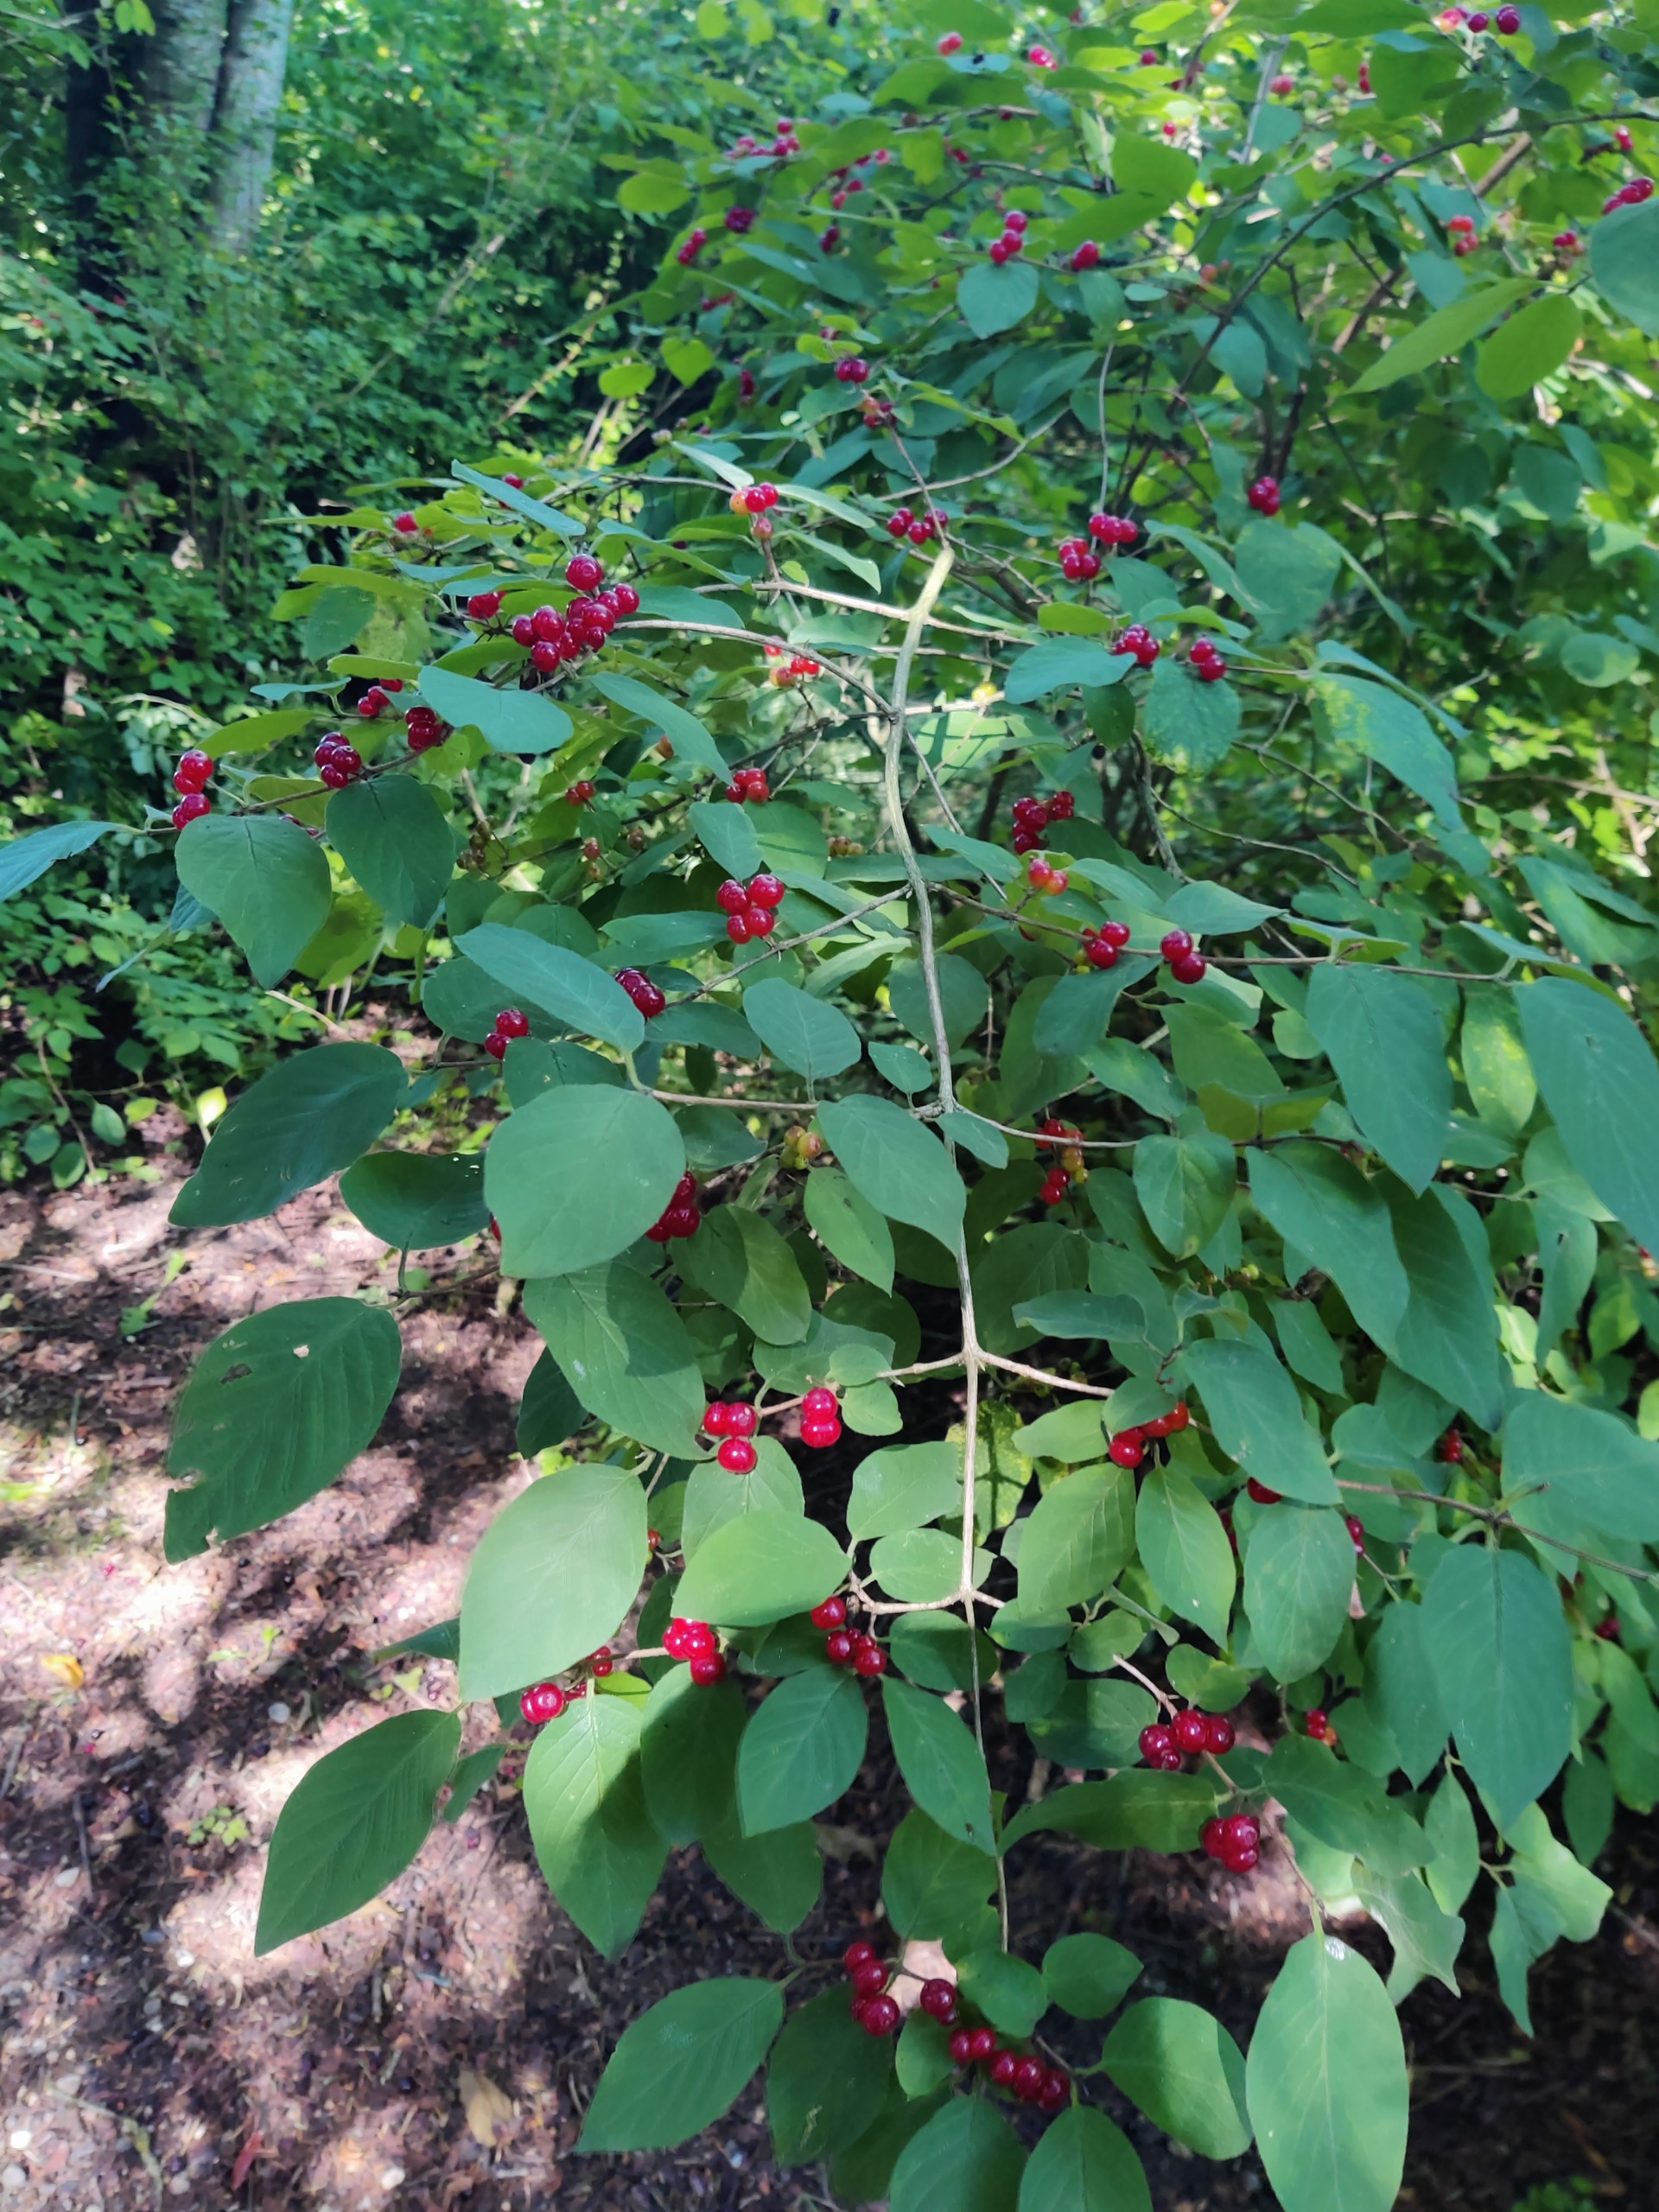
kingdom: Plantae
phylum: Tracheophyta
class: Magnoliopsida
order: Dipsacales
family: Caprifoliaceae
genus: Lonicera
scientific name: Lonicera xylosteum
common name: Dunet gedeblad
